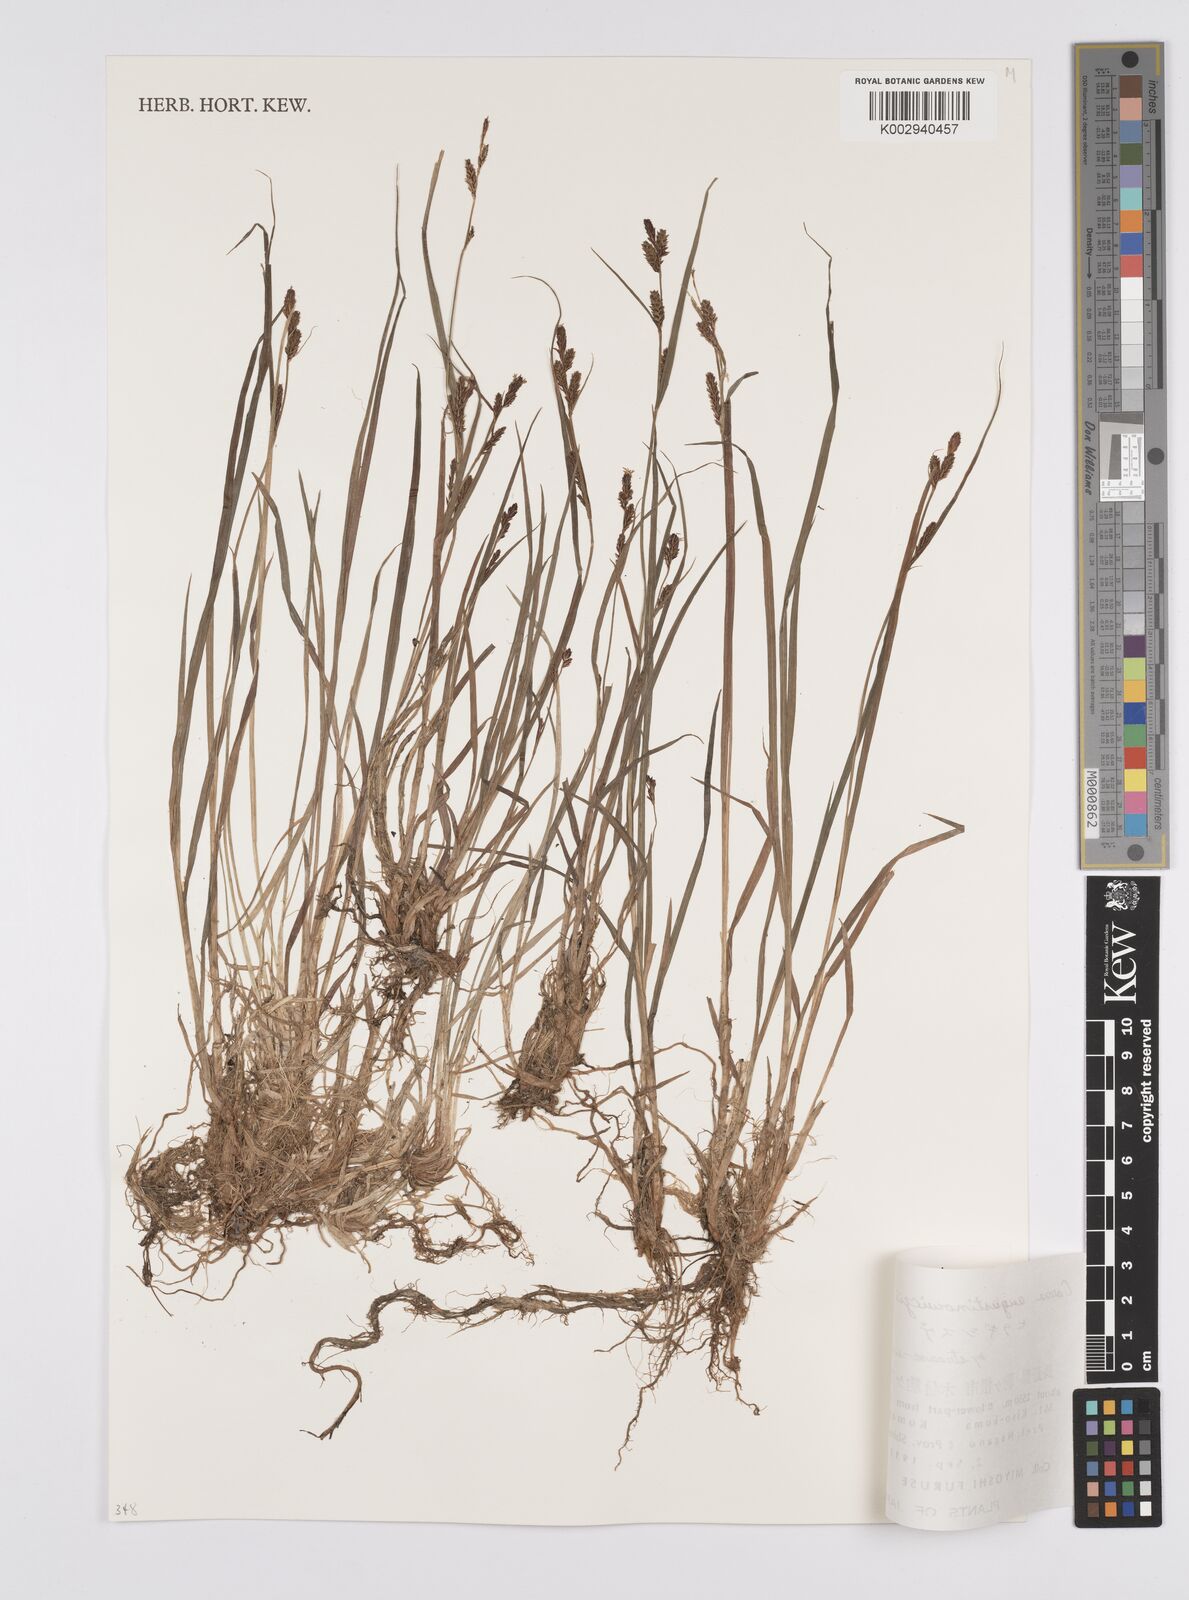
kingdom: Plantae
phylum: Tracheophyta
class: Liliopsida
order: Poales
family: Cyperaceae
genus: Carex
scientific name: Carex augustinowiczii
